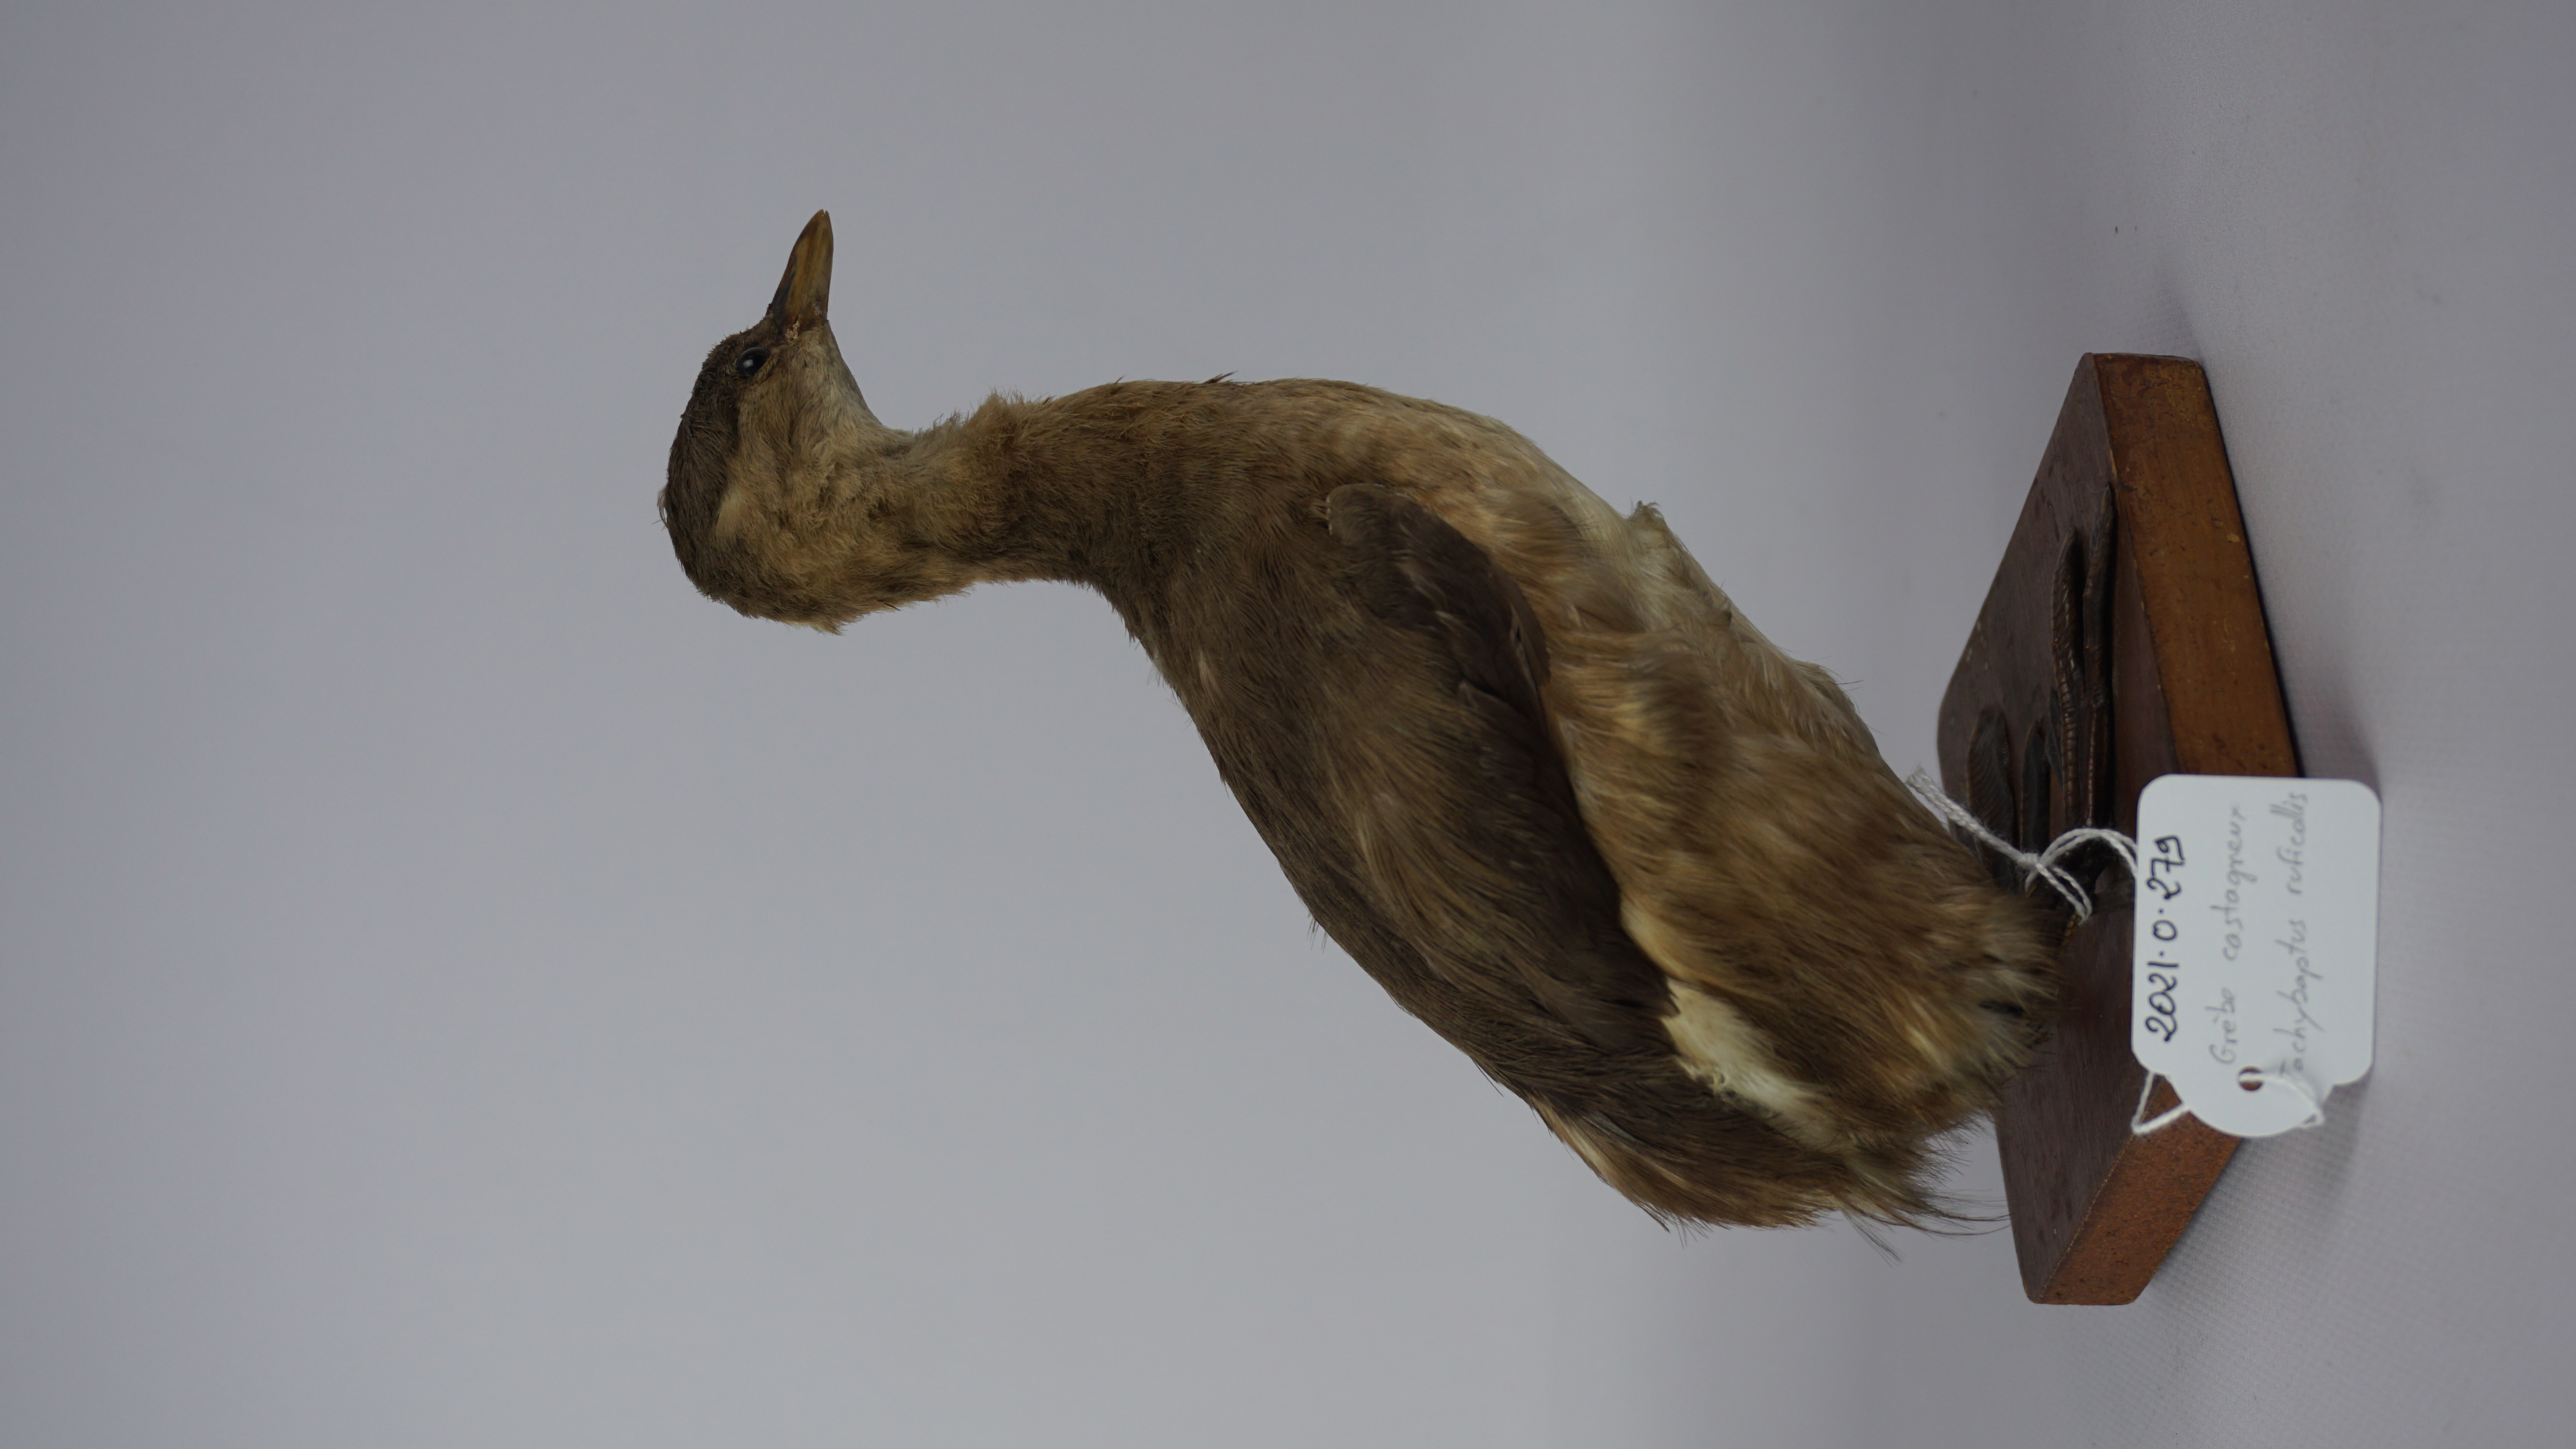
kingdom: Animalia
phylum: Chordata
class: Aves
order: Podicipediformes
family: Podicipedidae
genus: Tachybaptus
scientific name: Tachybaptus ruficollis
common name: Little grebe
